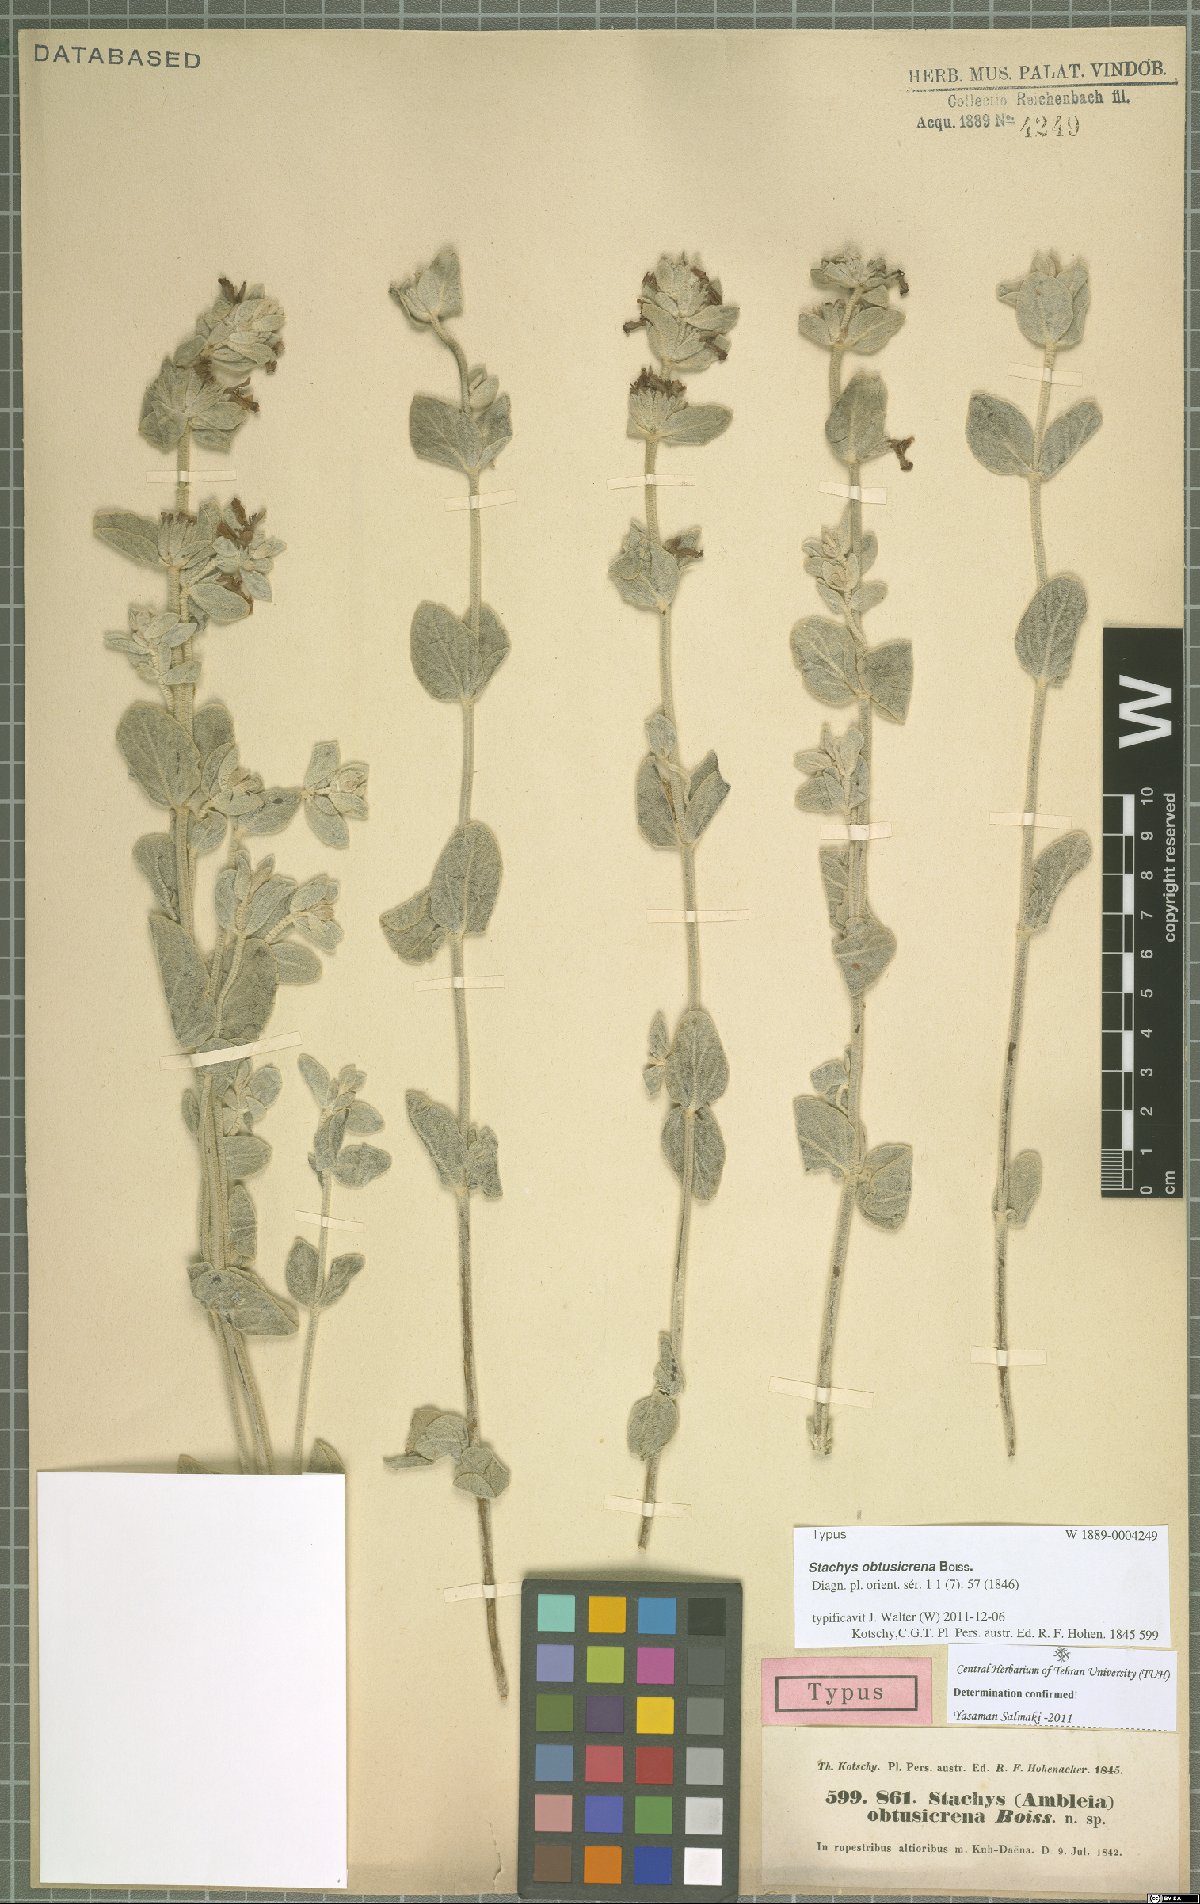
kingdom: Plantae
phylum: Tracheophyta
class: Magnoliopsida
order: Lamiales
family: Lamiaceae
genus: Stachys
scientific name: Stachys obtusicrena
